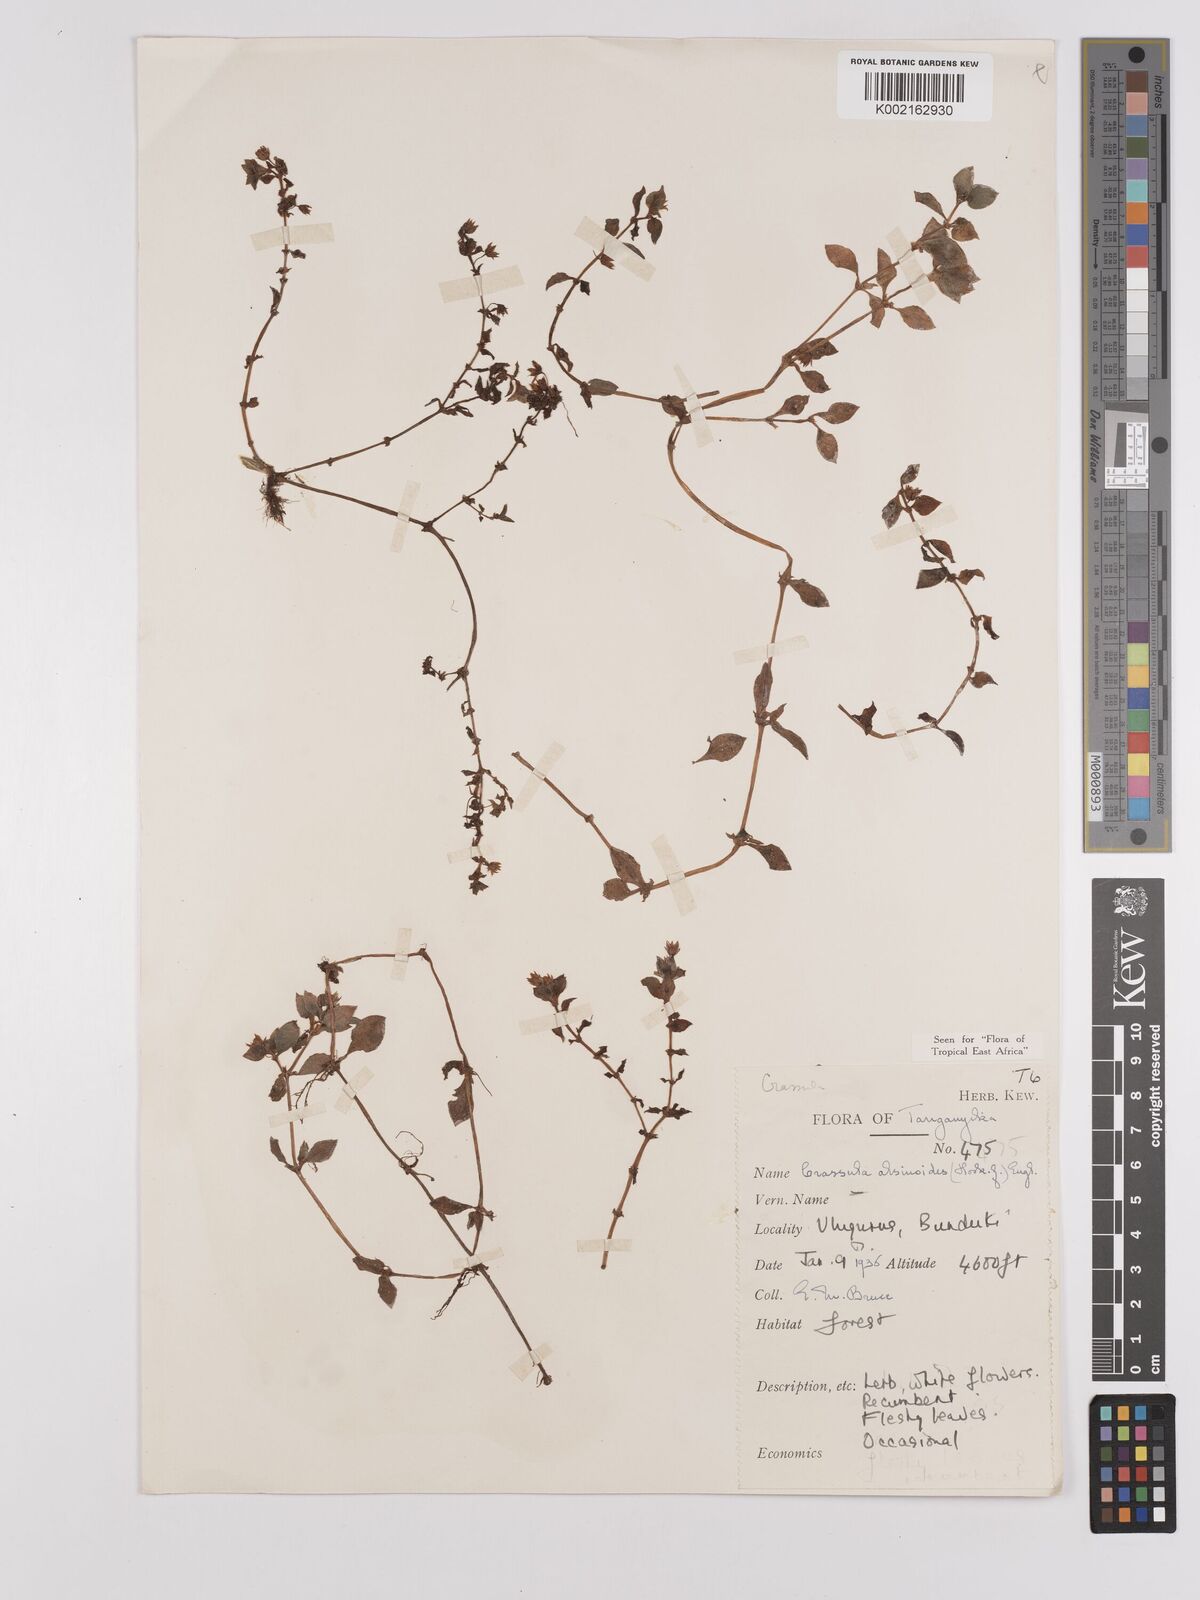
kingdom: Plantae
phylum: Tracheophyta
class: Magnoliopsida
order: Saxifragales
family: Crassulaceae
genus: Crassula
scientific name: Crassula alsinoides
